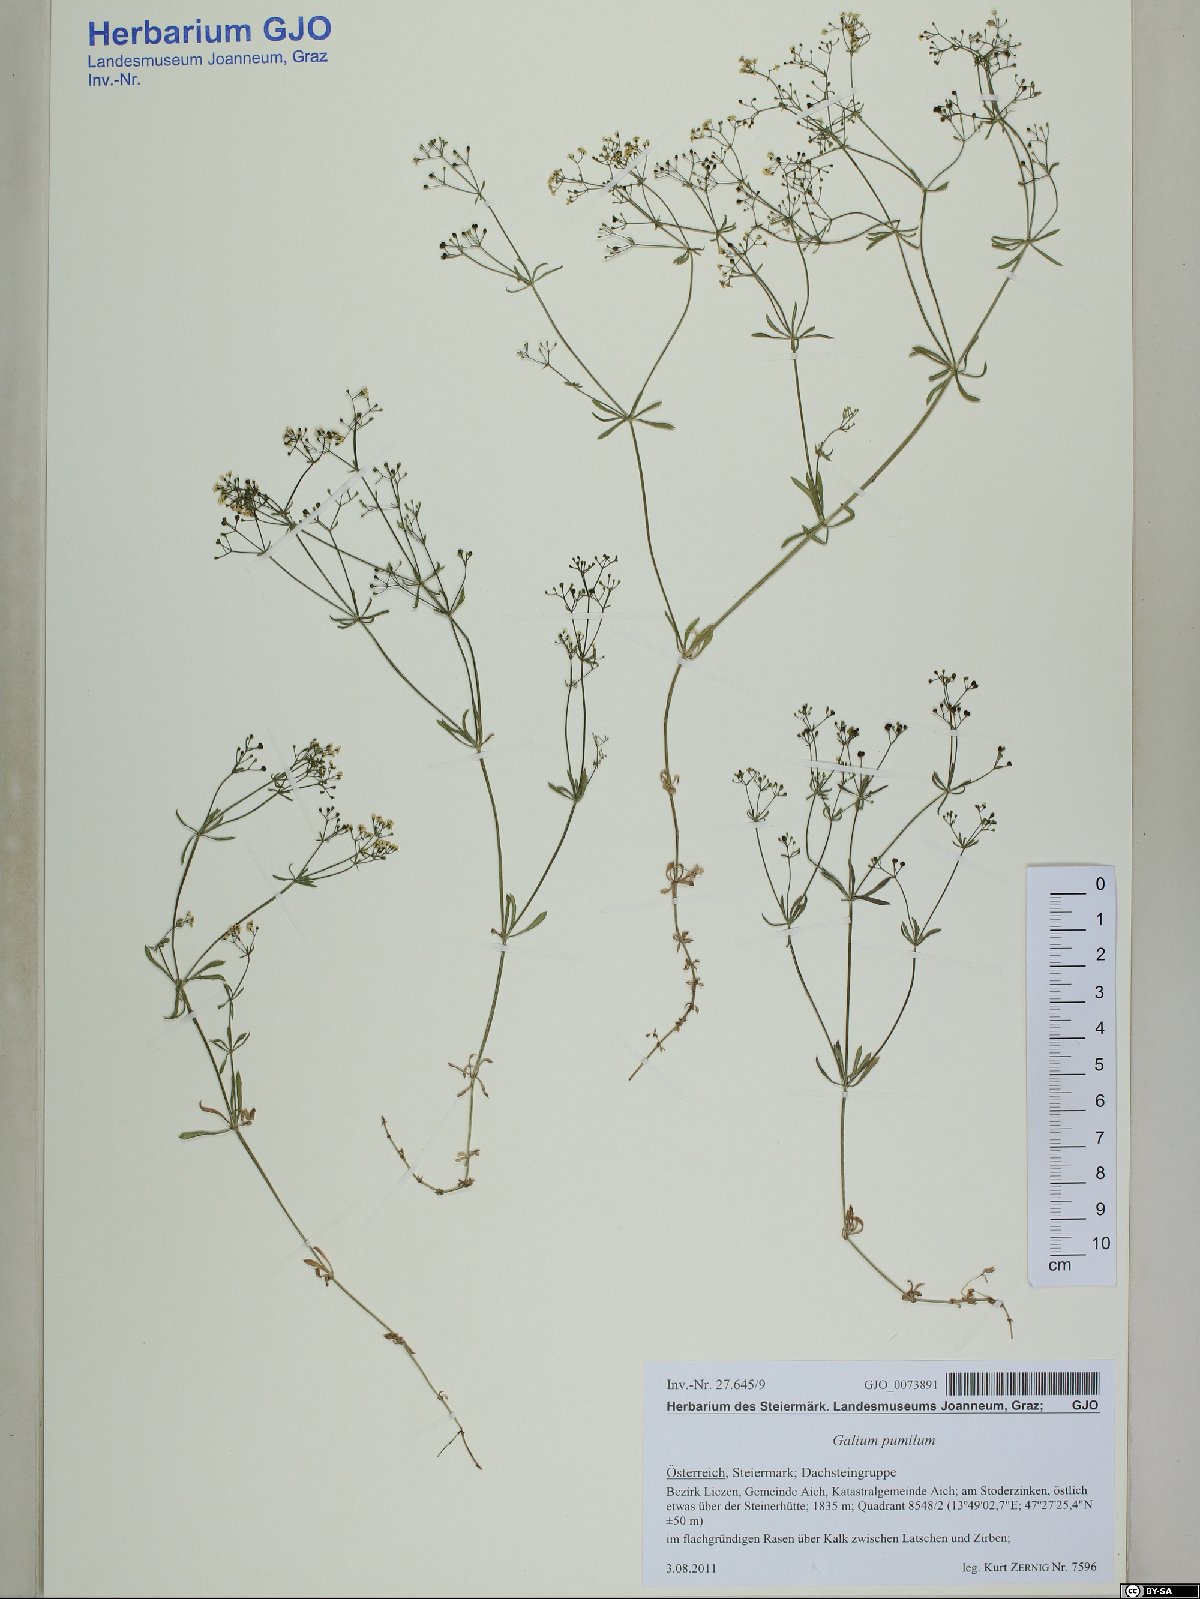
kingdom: Plantae
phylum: Tracheophyta
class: Magnoliopsida
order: Gentianales
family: Rubiaceae
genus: Galium
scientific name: Galium pumilum
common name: Slender bedstraw
